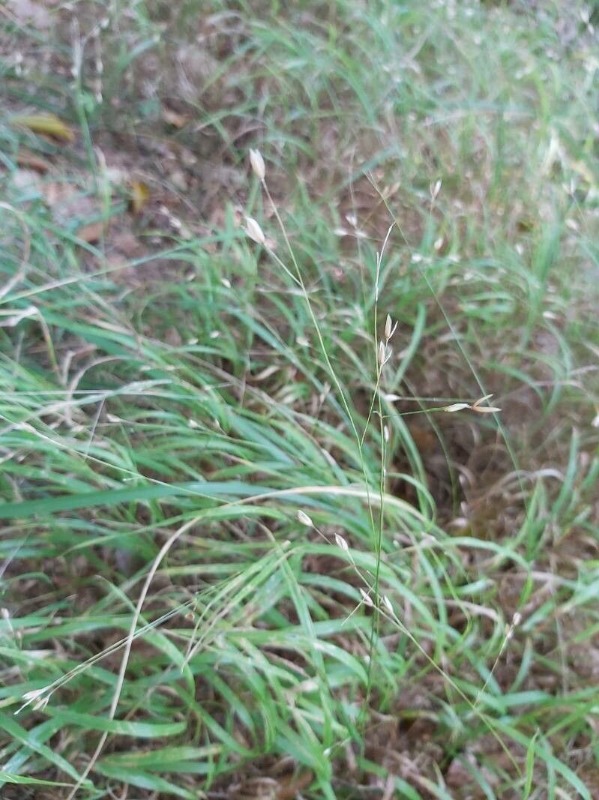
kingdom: Plantae
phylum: Tracheophyta
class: Liliopsida
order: Poales
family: Poaceae
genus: Melica
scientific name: Melica uniflora
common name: Enblomstret flitteraks
